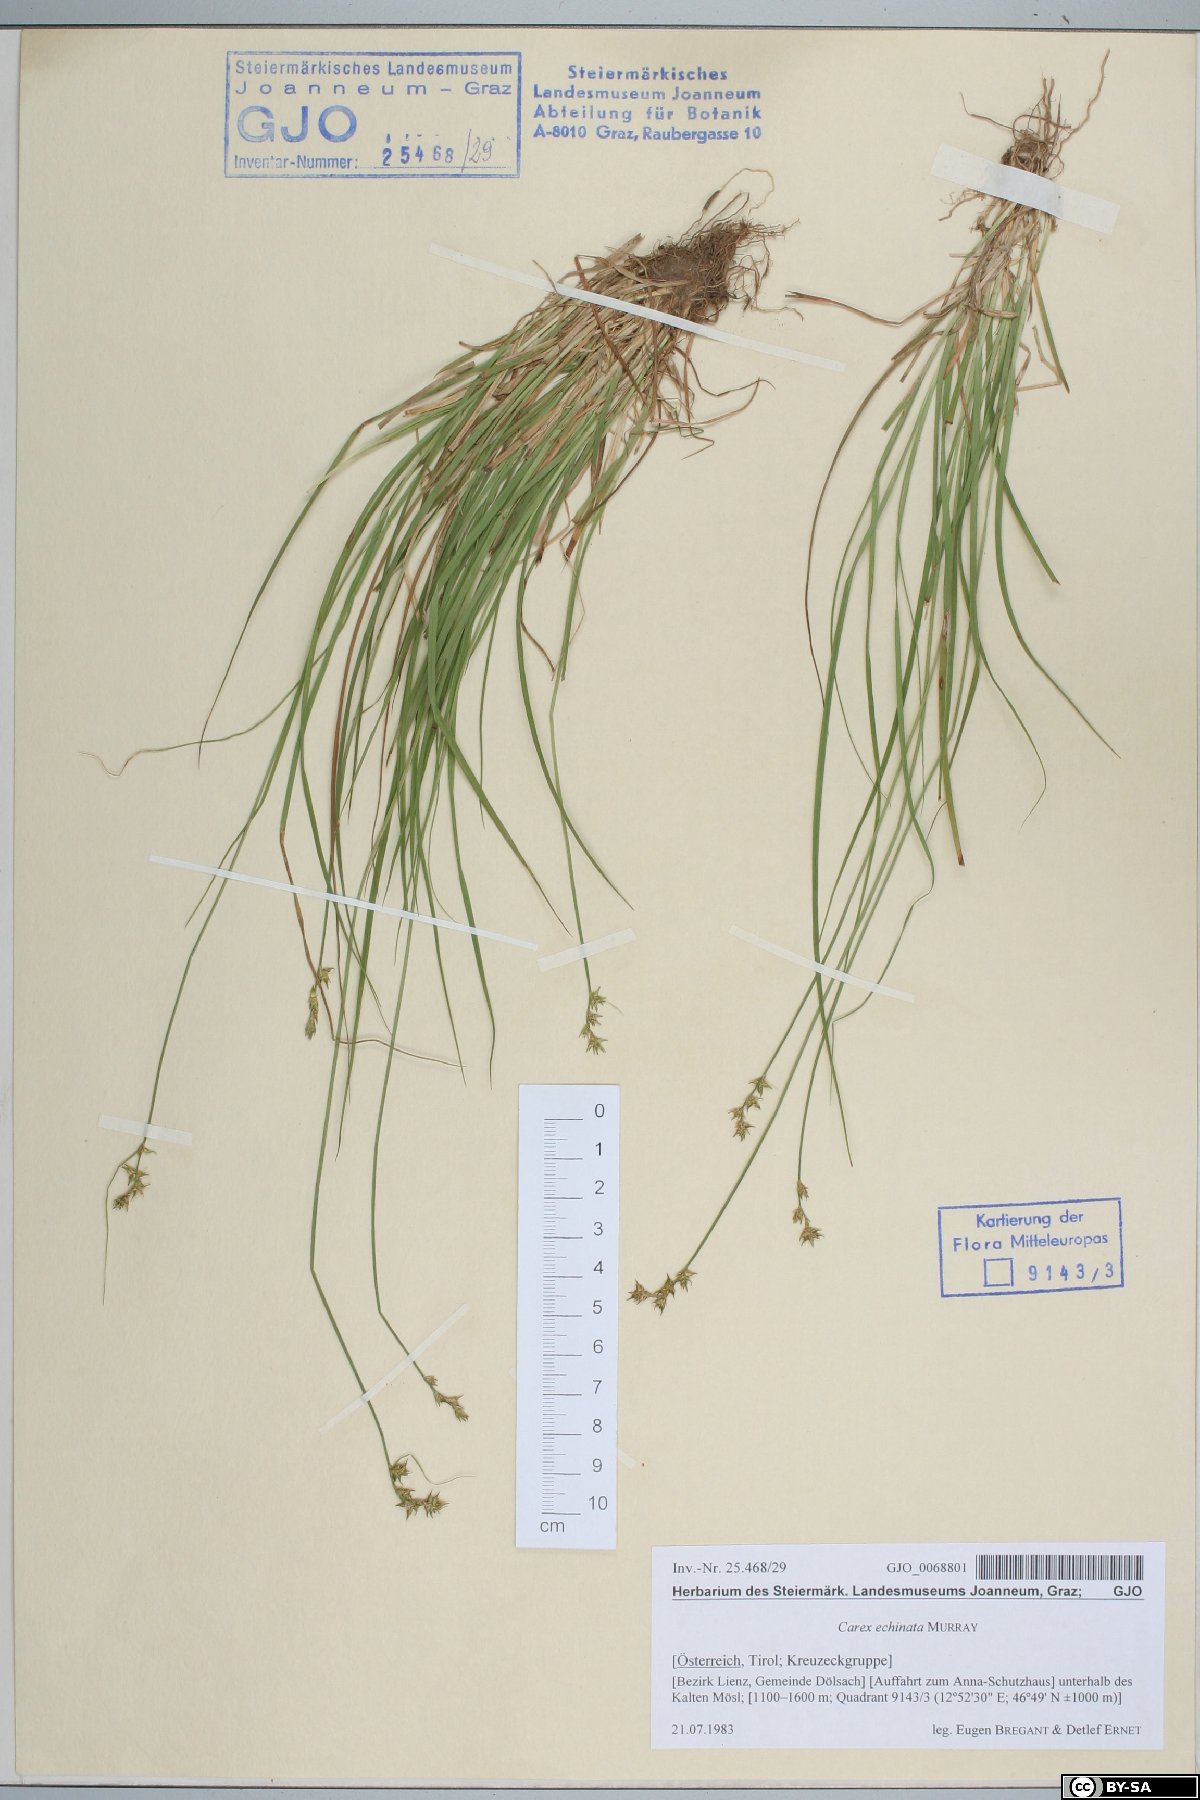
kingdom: Plantae
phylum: Tracheophyta
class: Liliopsida
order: Poales
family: Cyperaceae
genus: Carex
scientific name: Carex echinata
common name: Star sedge
